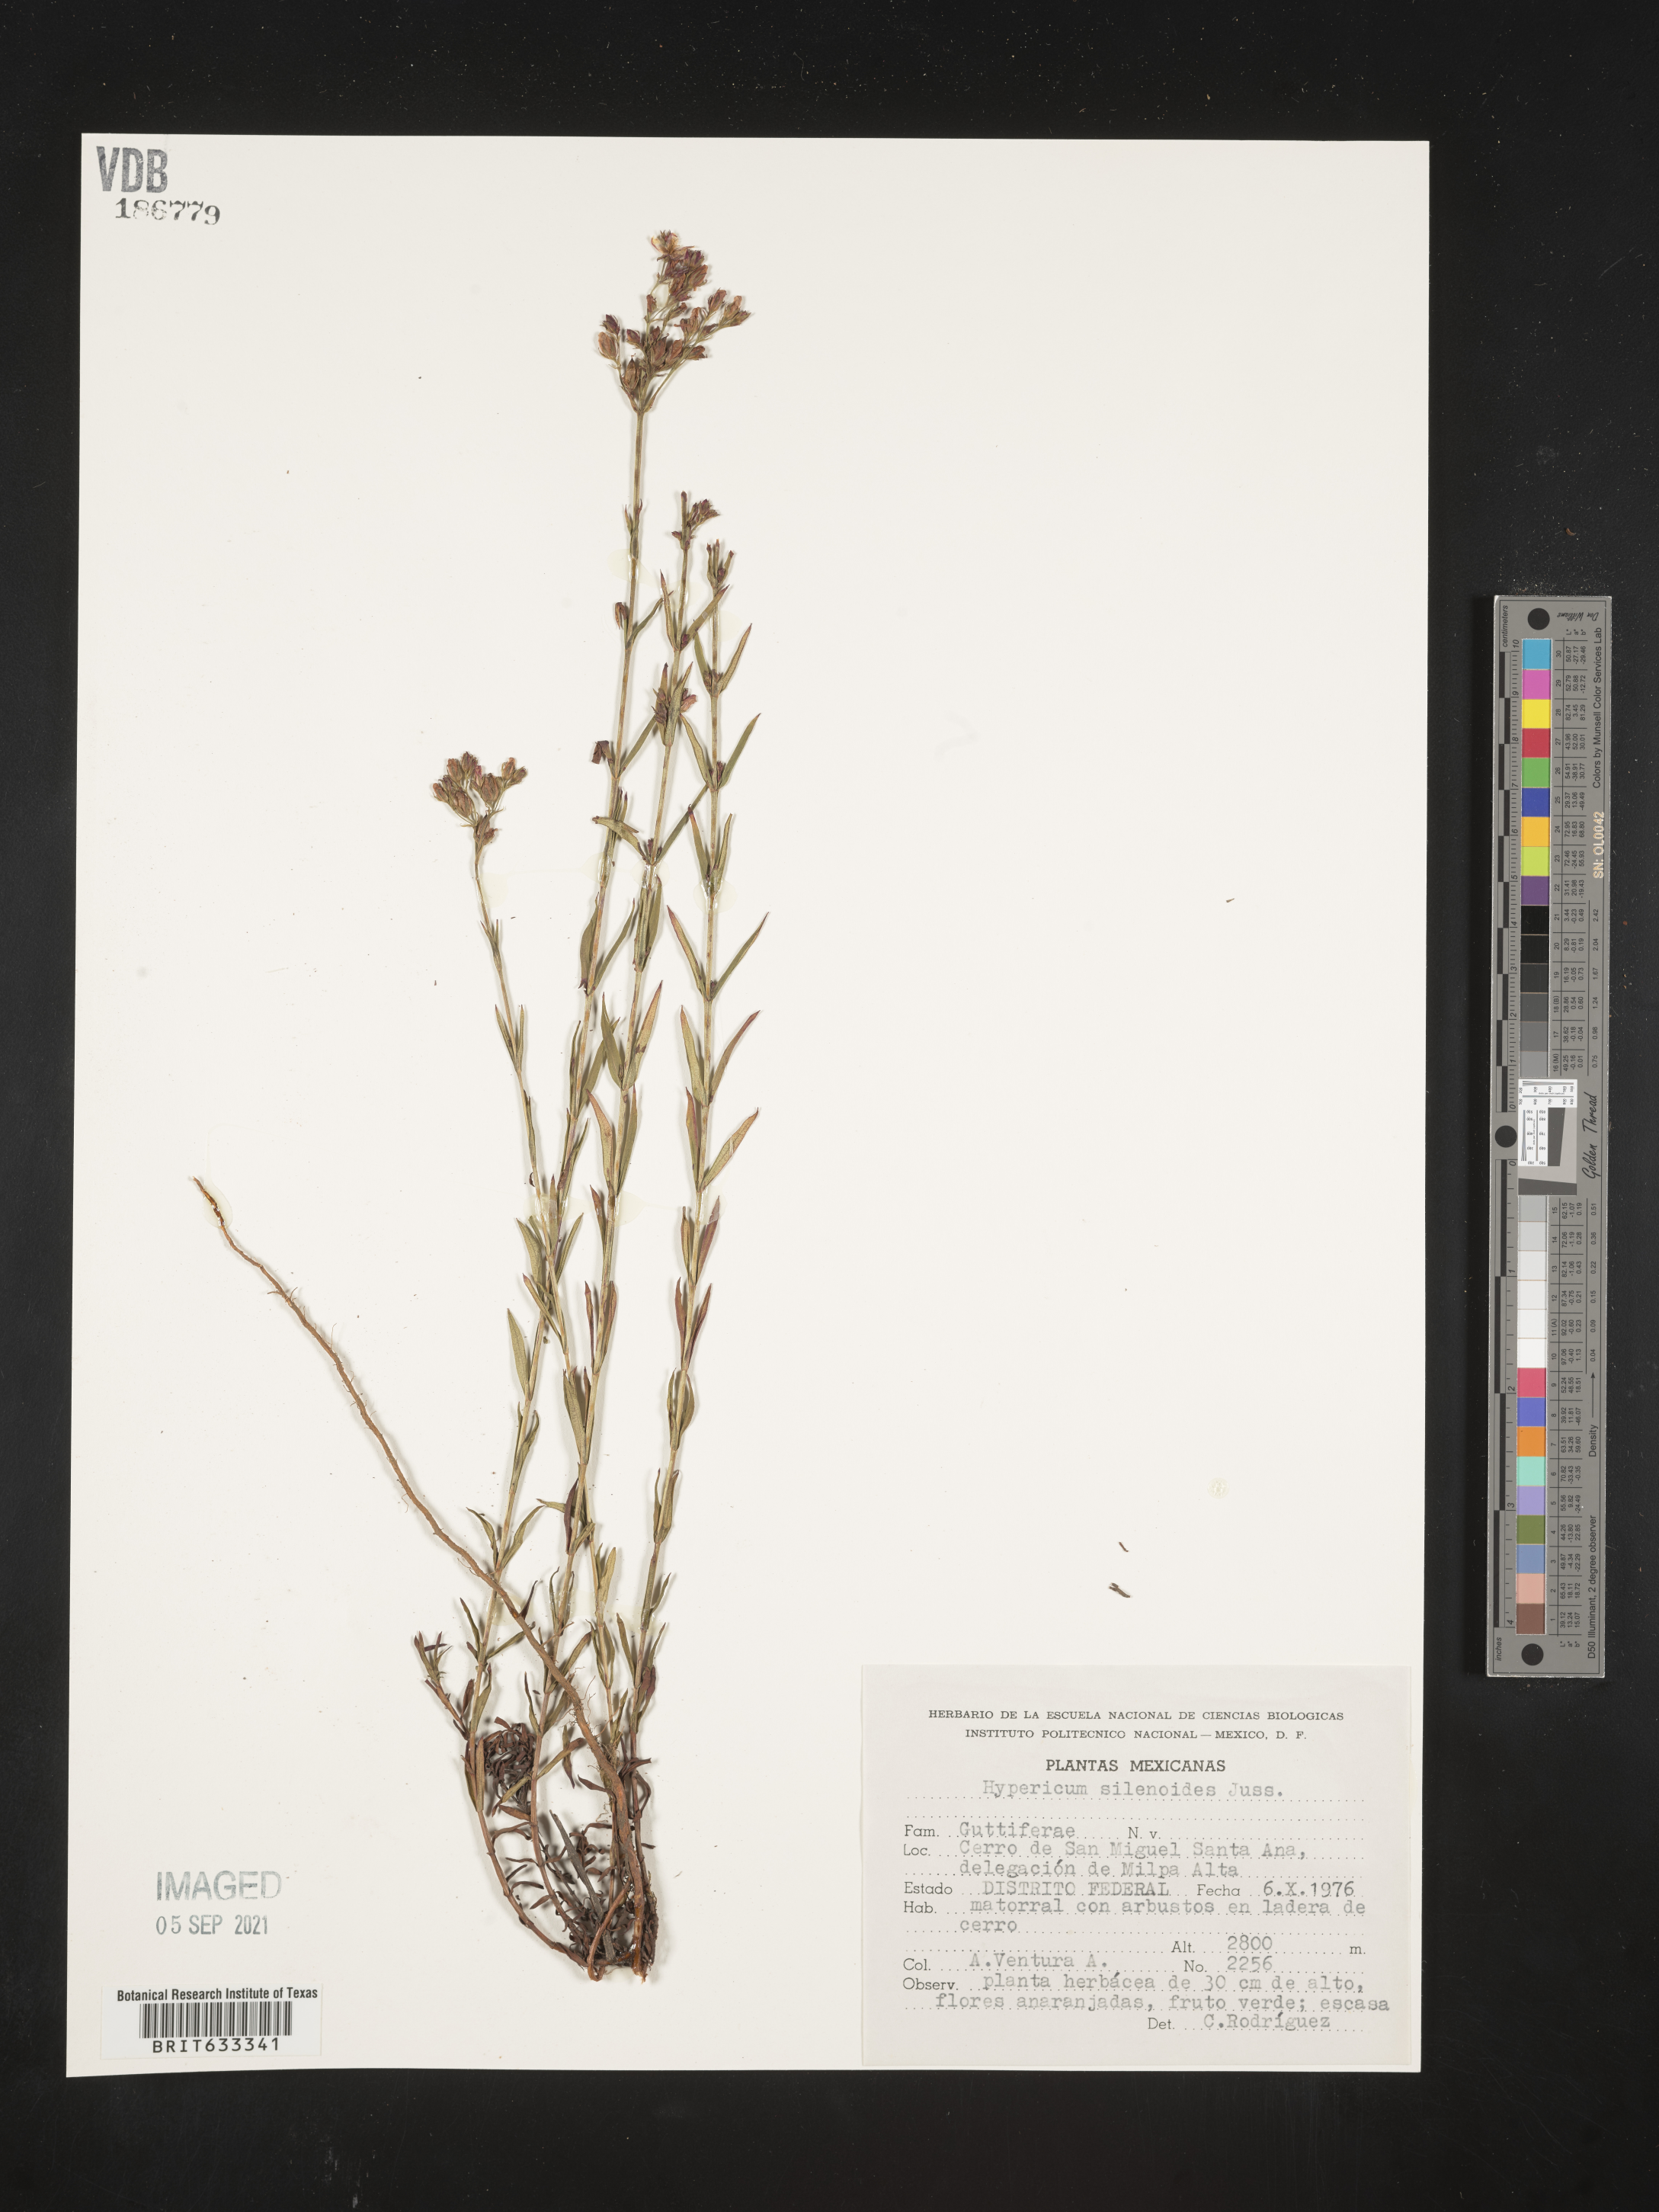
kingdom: Plantae
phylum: Tracheophyta
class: Magnoliopsida
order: Malpighiales
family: Hypericaceae
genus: Hypericum
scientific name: Hypericum
